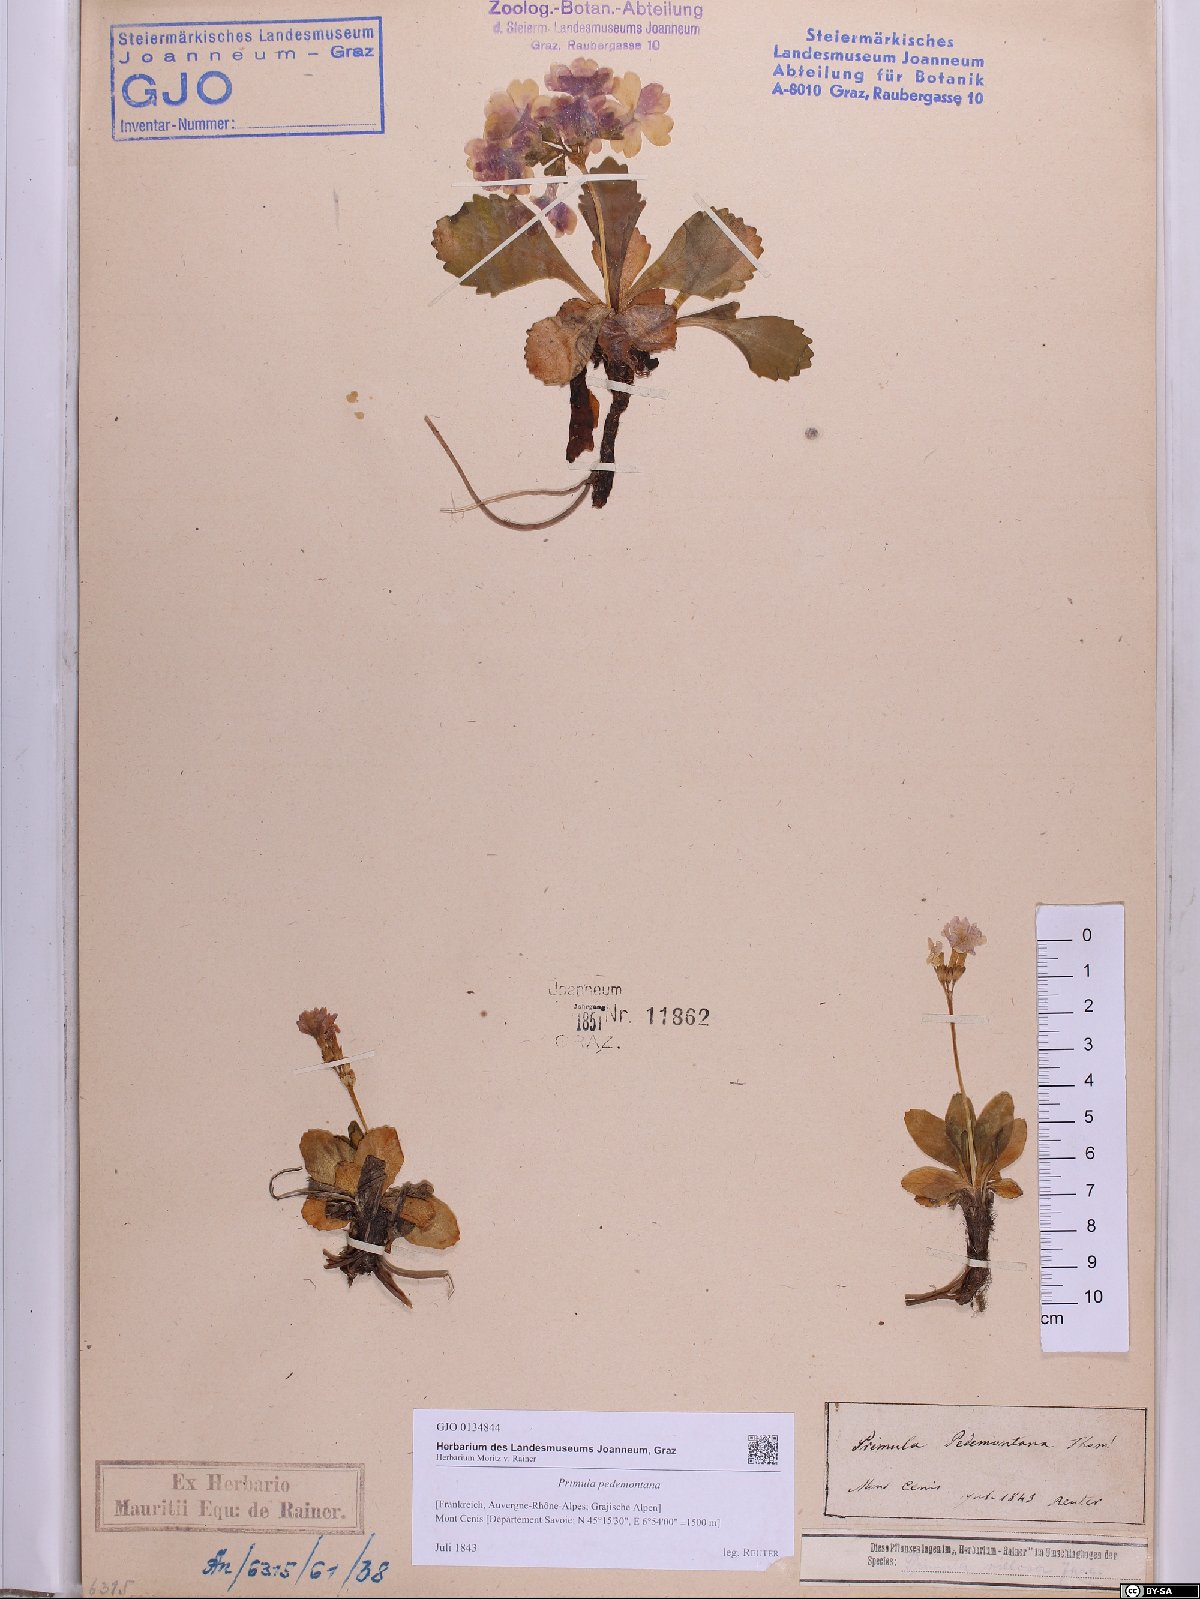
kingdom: Plantae
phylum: Tracheophyta
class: Magnoliopsida
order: Ericales
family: Primulaceae
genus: Primula
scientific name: Primula pedemontana
